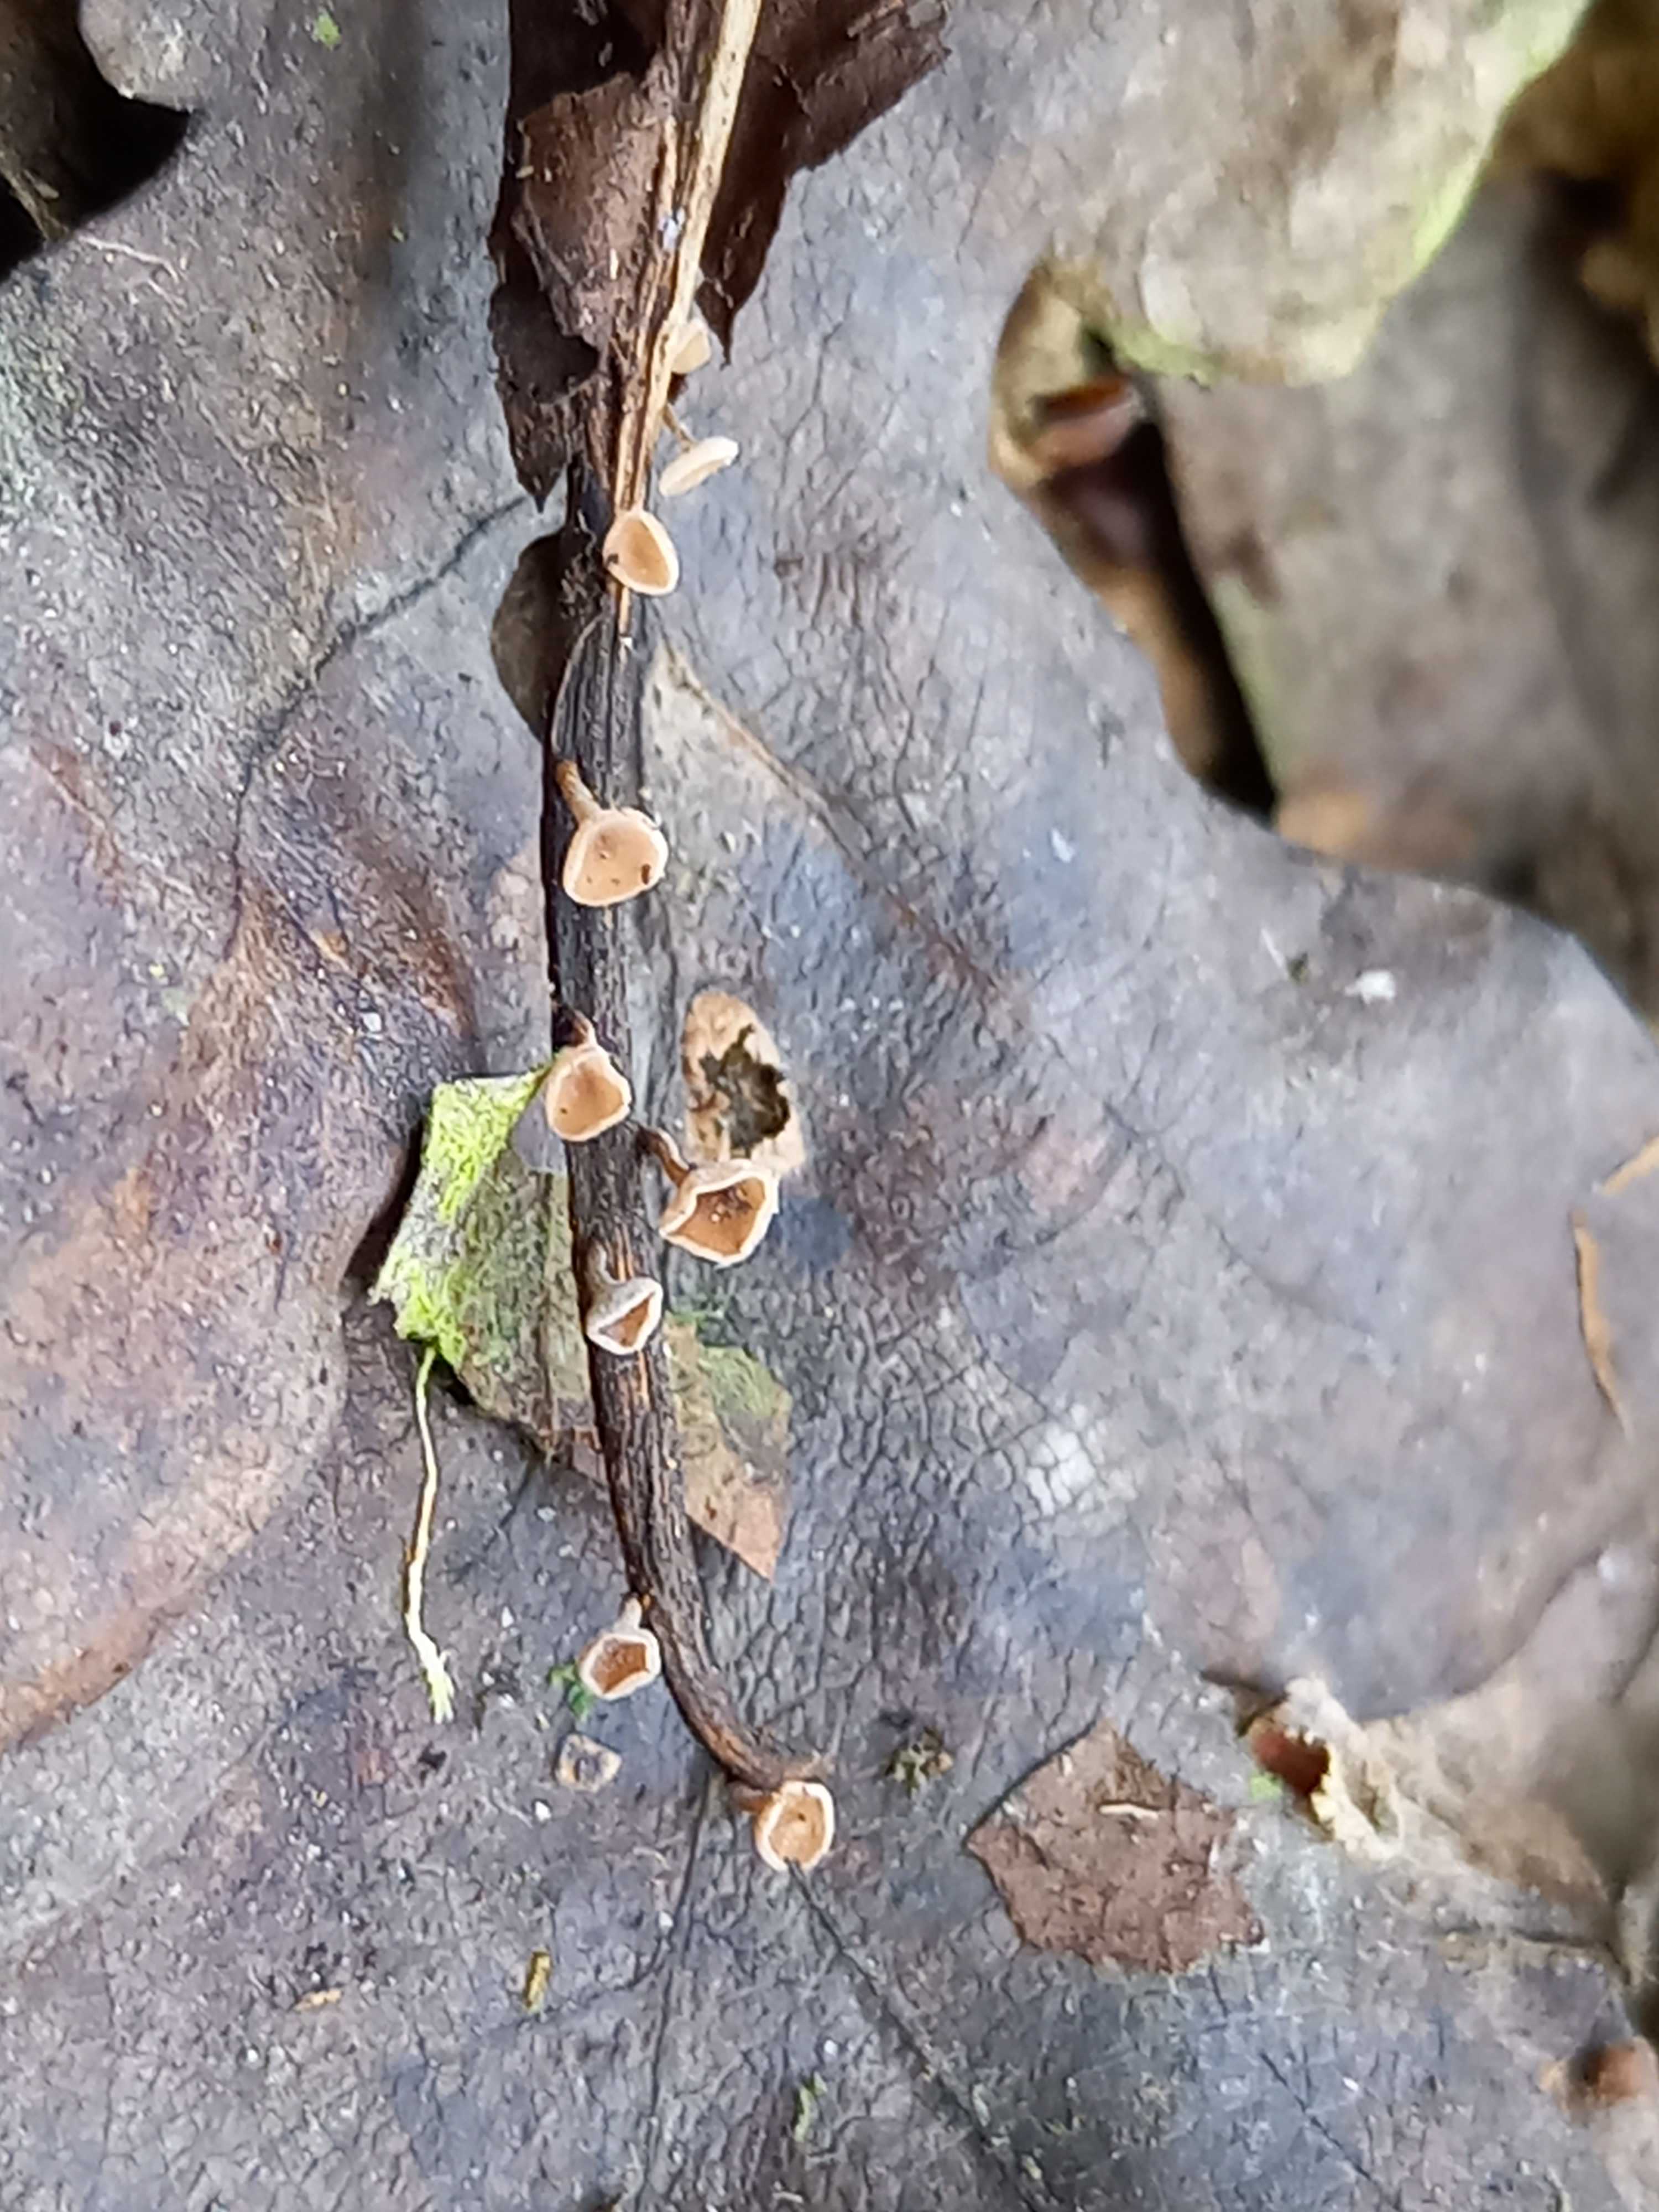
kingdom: Fungi
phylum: Ascomycota
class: Leotiomycetes
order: Helotiales
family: Rutstroemiaceae
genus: Rutstroemia
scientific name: Rutstroemia conformata
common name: elleblads-brunskive
